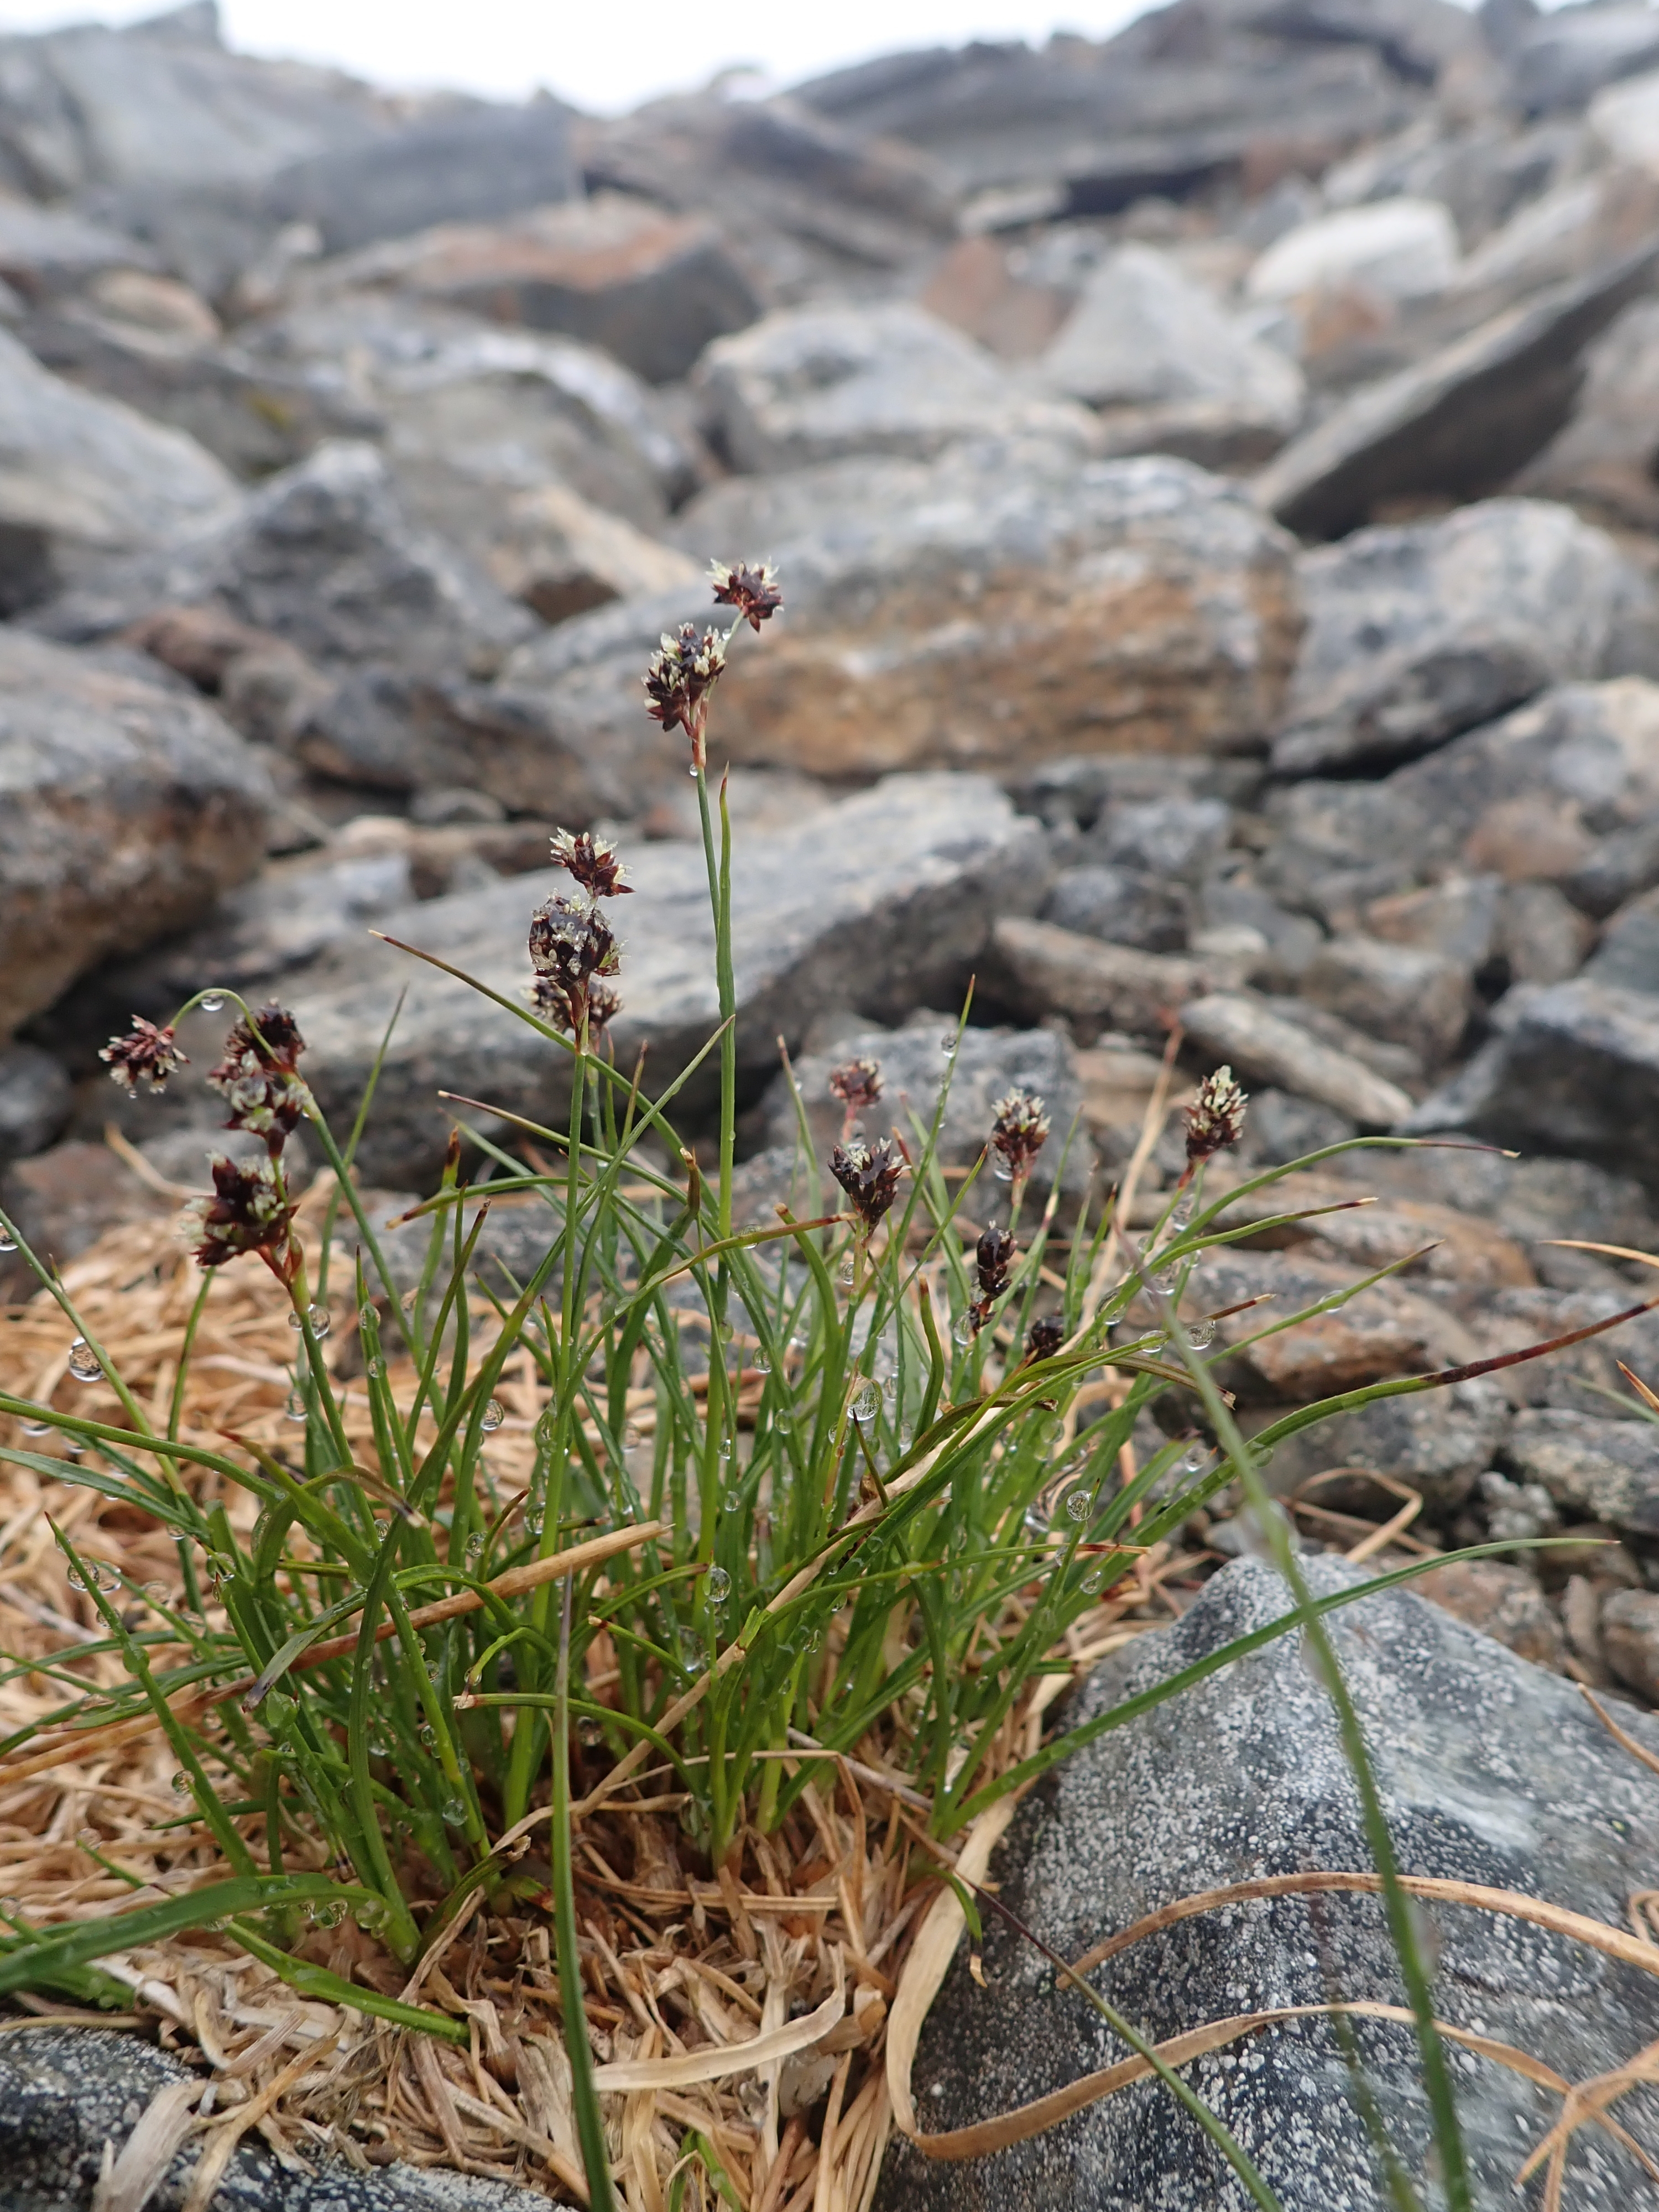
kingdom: Plantae
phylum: Tracheophyta
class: Liliopsida
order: Poales
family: Juncaceae
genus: Luzula
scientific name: Luzula confusa
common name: Northern wood rush
